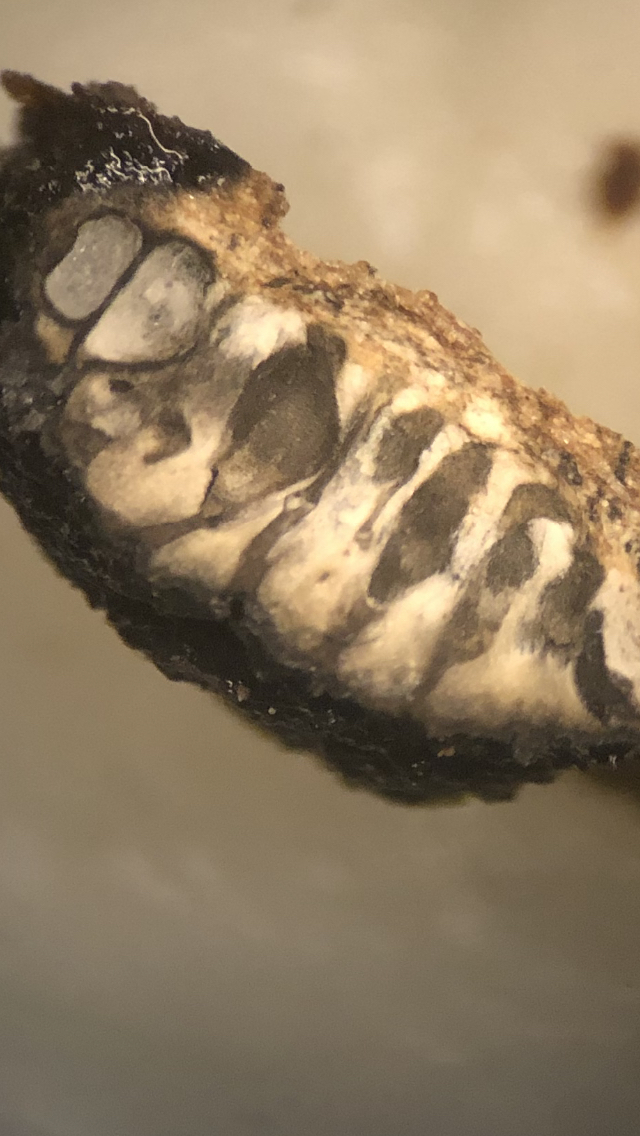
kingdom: Fungi
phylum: Ascomycota
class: Sordariomycetes
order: Xylariales
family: Diatrypaceae
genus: Diatrypella
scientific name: Diatrypella favacea
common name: Birch blackhead
